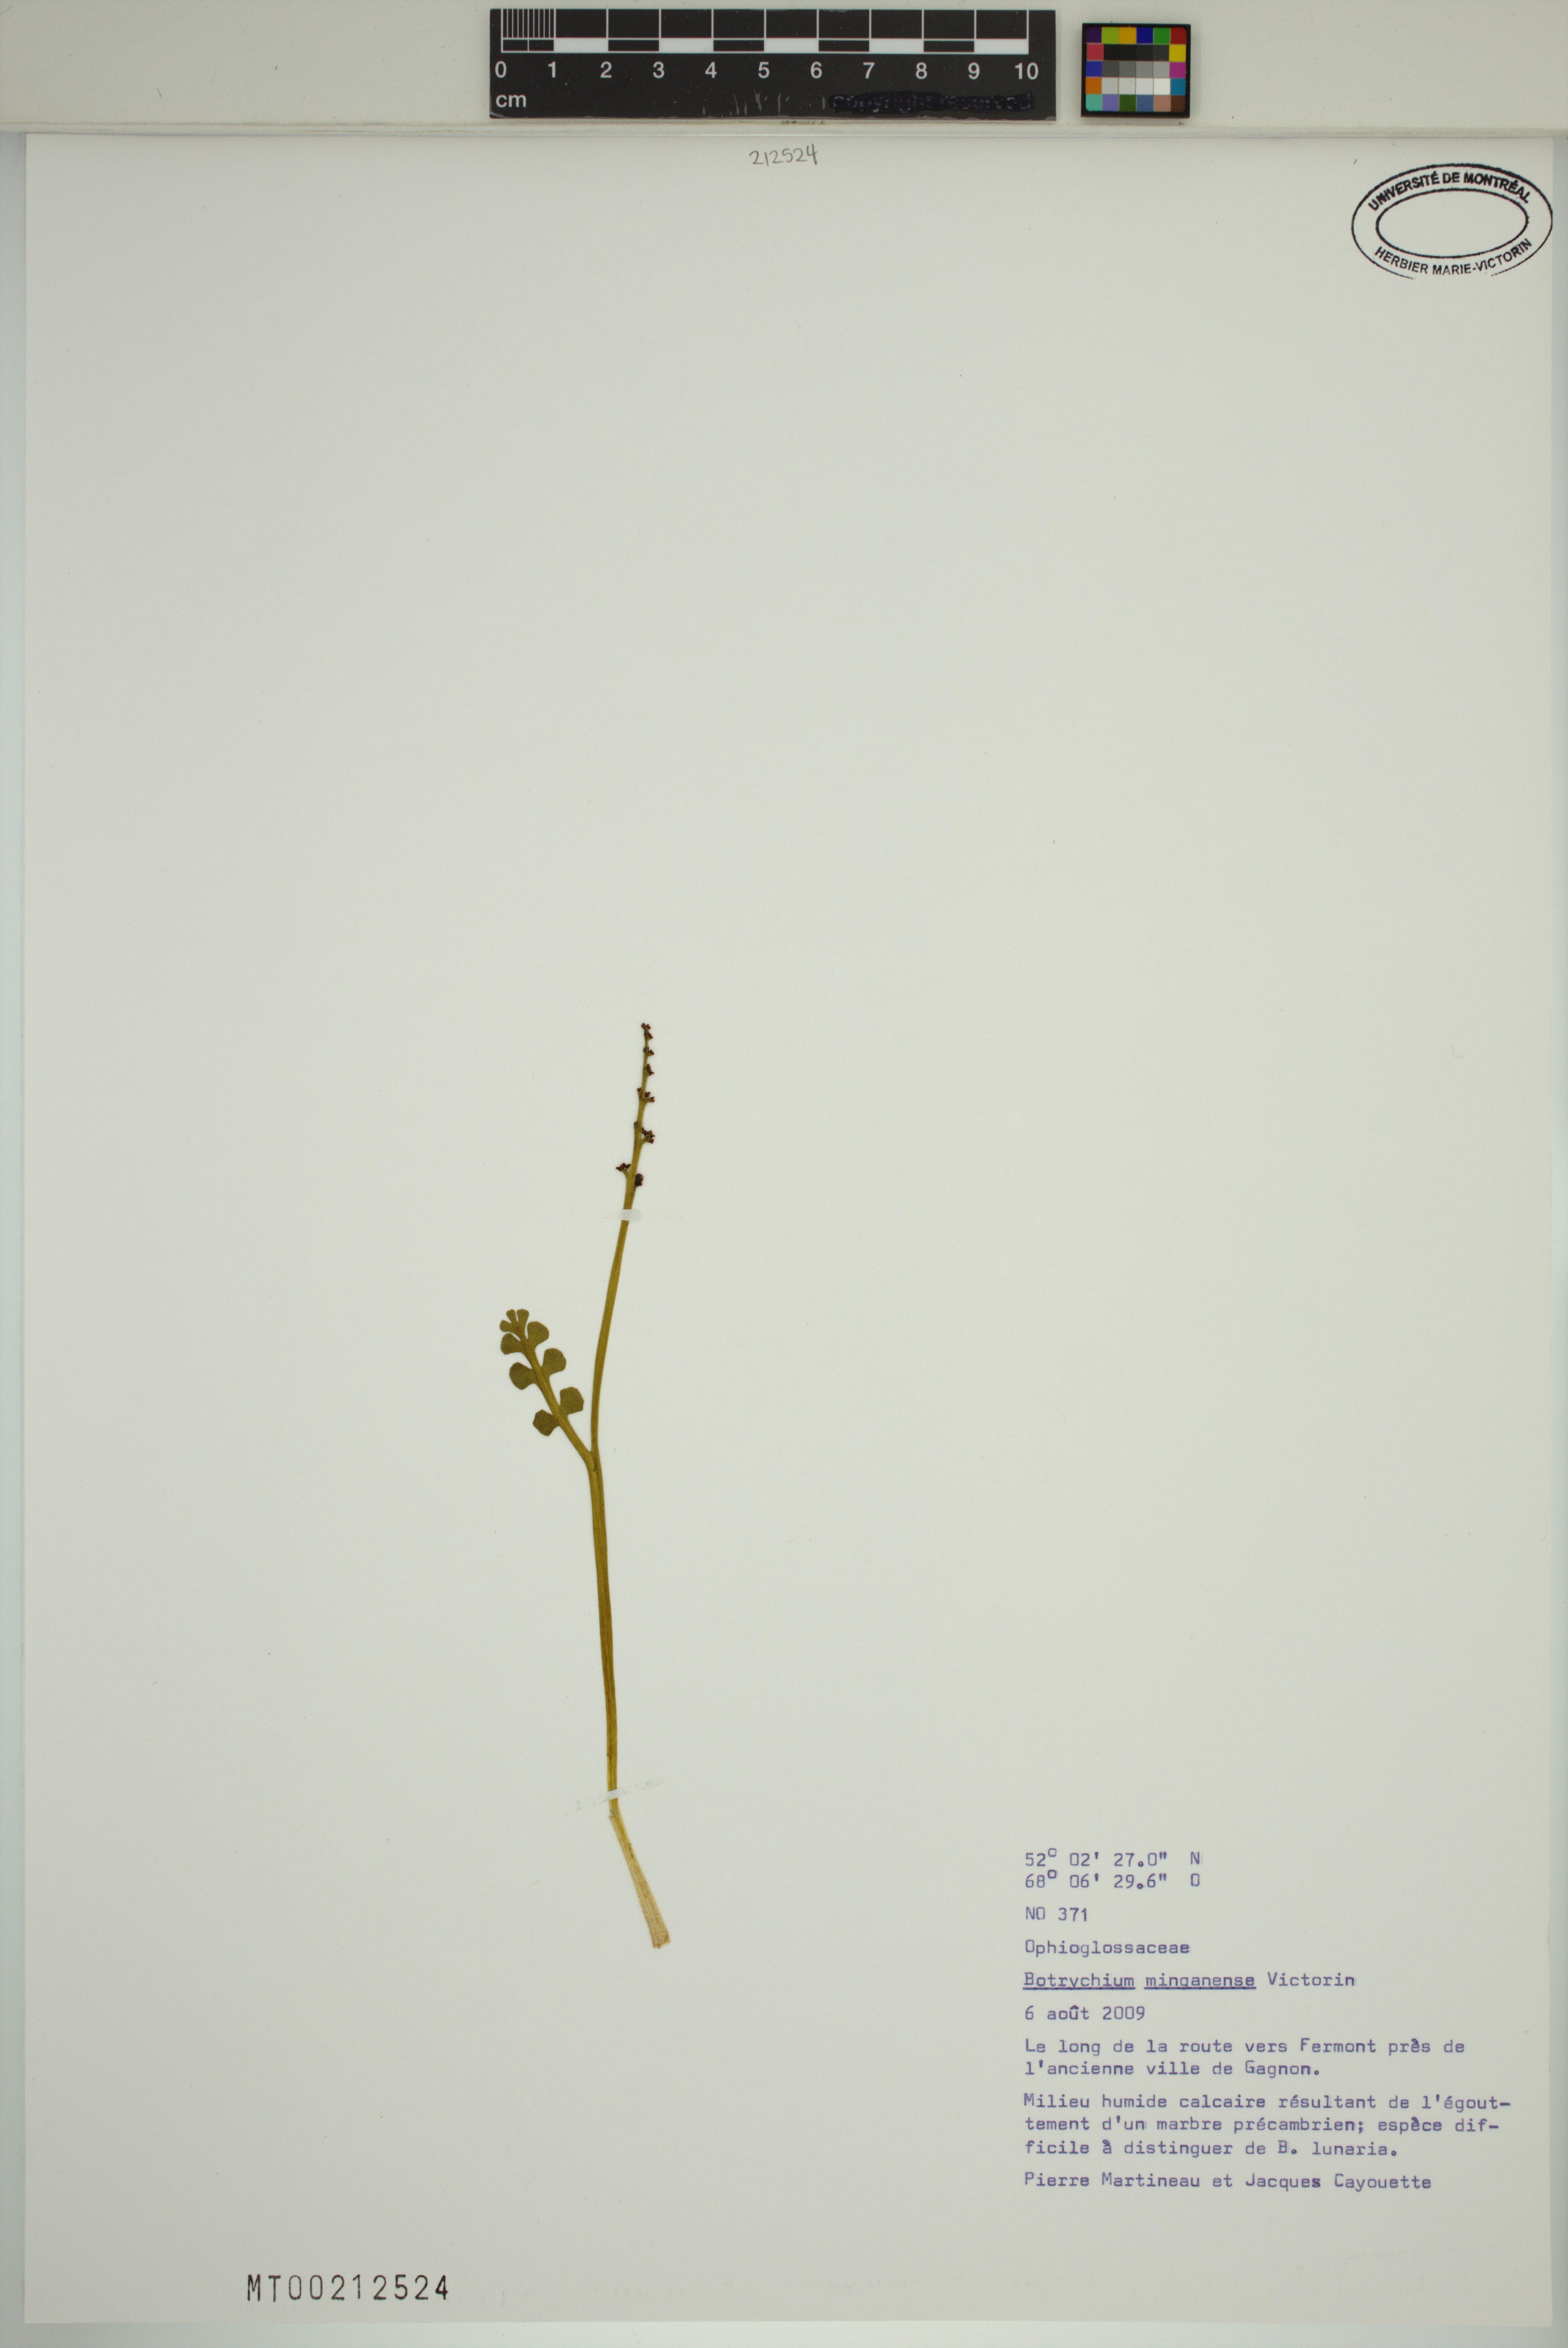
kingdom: Plantae
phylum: Tracheophyta
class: Polypodiopsida
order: Ophioglossales
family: Ophioglossaceae
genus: Botrychium
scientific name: Botrychium minganense
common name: Mingan grapefern
